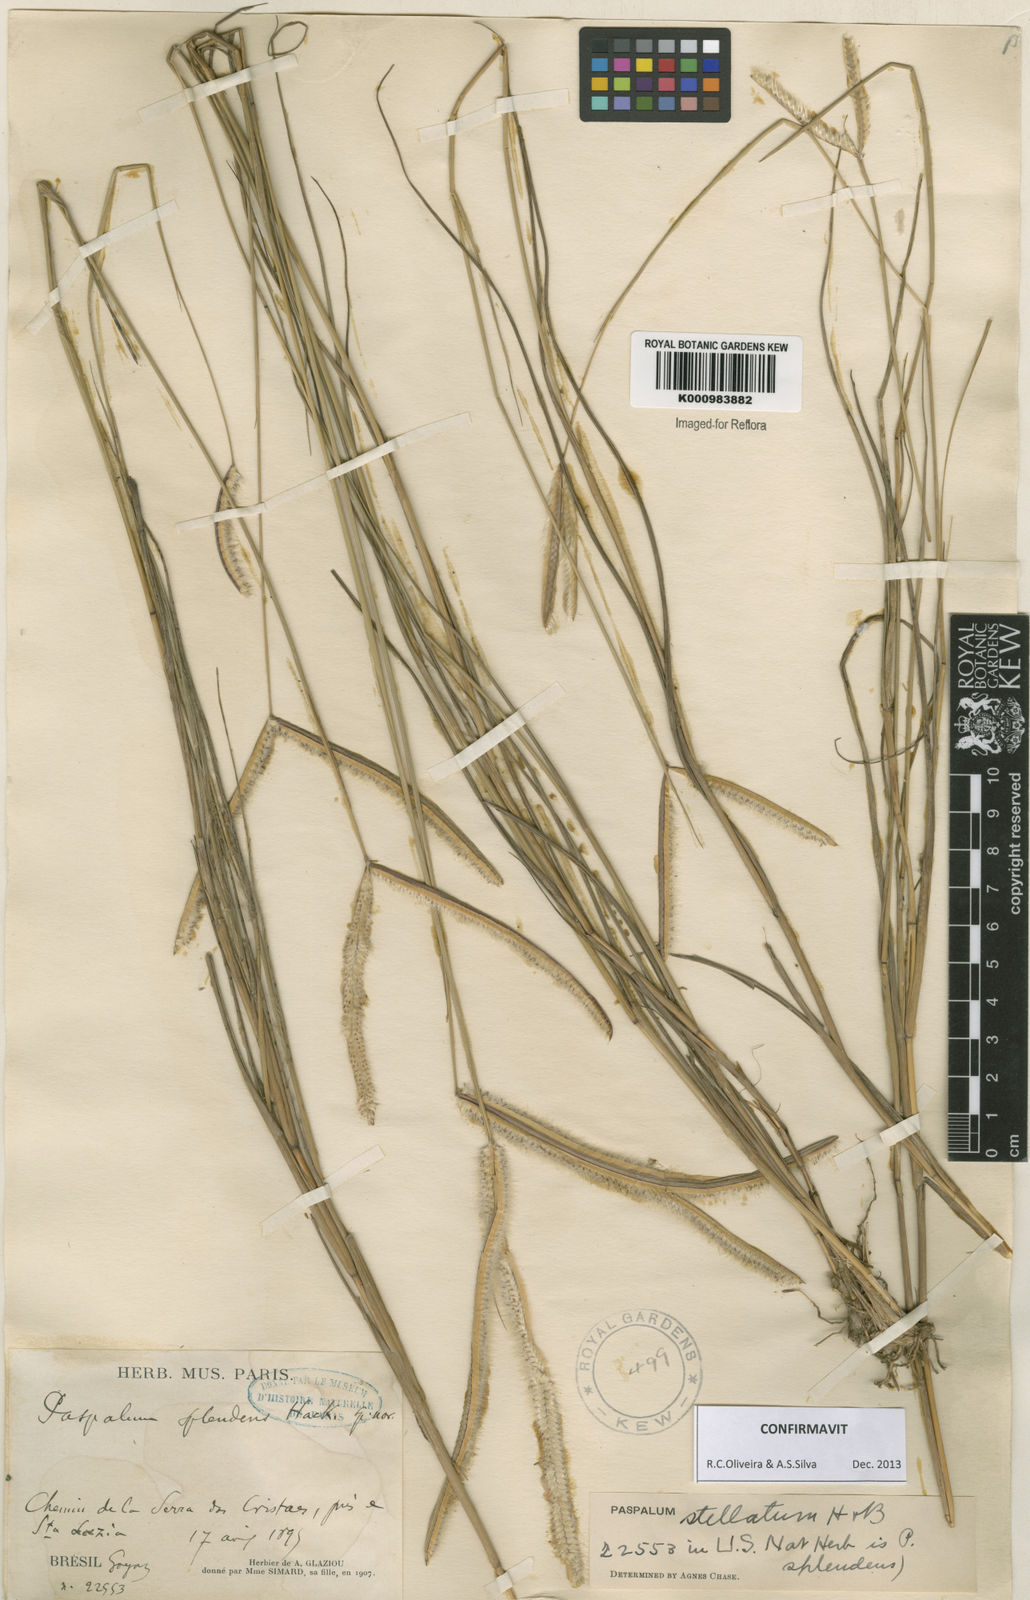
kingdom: Plantae
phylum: Tracheophyta
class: Liliopsida
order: Poales
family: Poaceae
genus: Paspalum
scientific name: Paspalum
